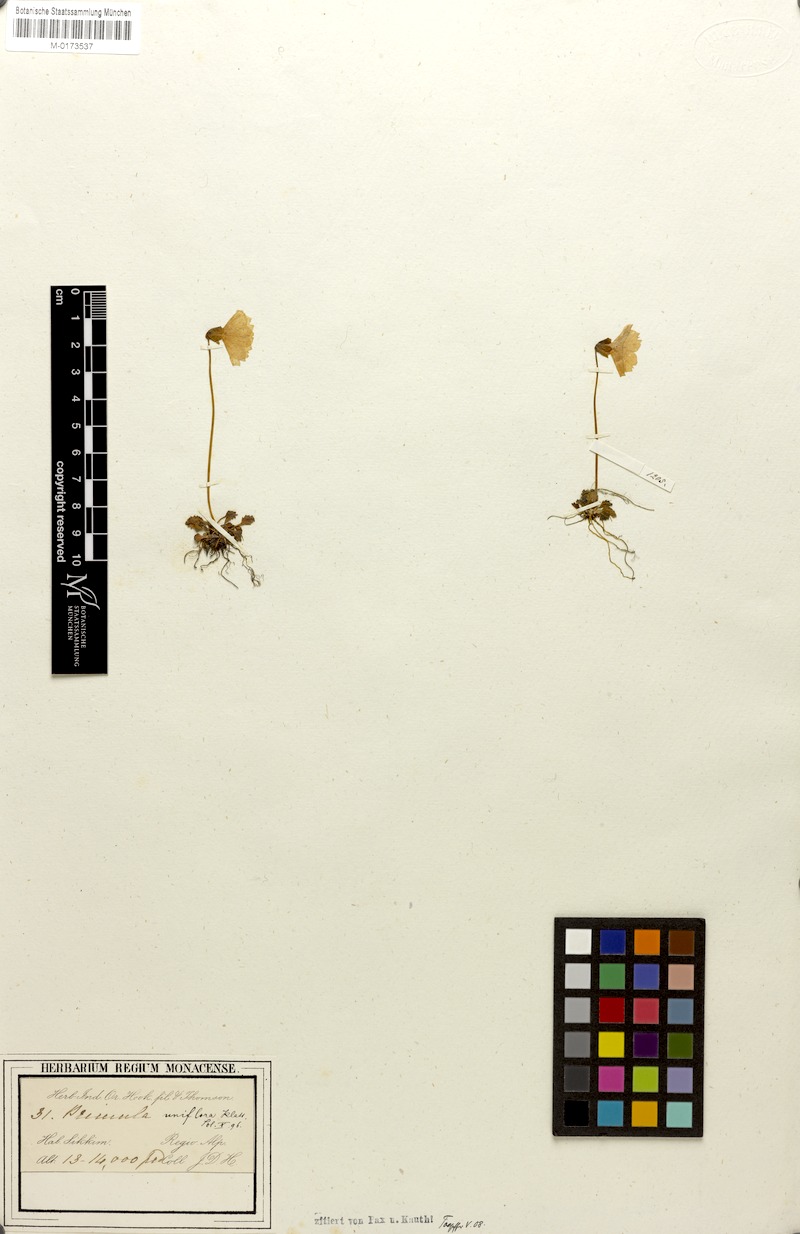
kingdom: Plantae
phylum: Tracheophyta
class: Magnoliopsida
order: Ericales
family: Primulaceae
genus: Primula
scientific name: Primula klattii
